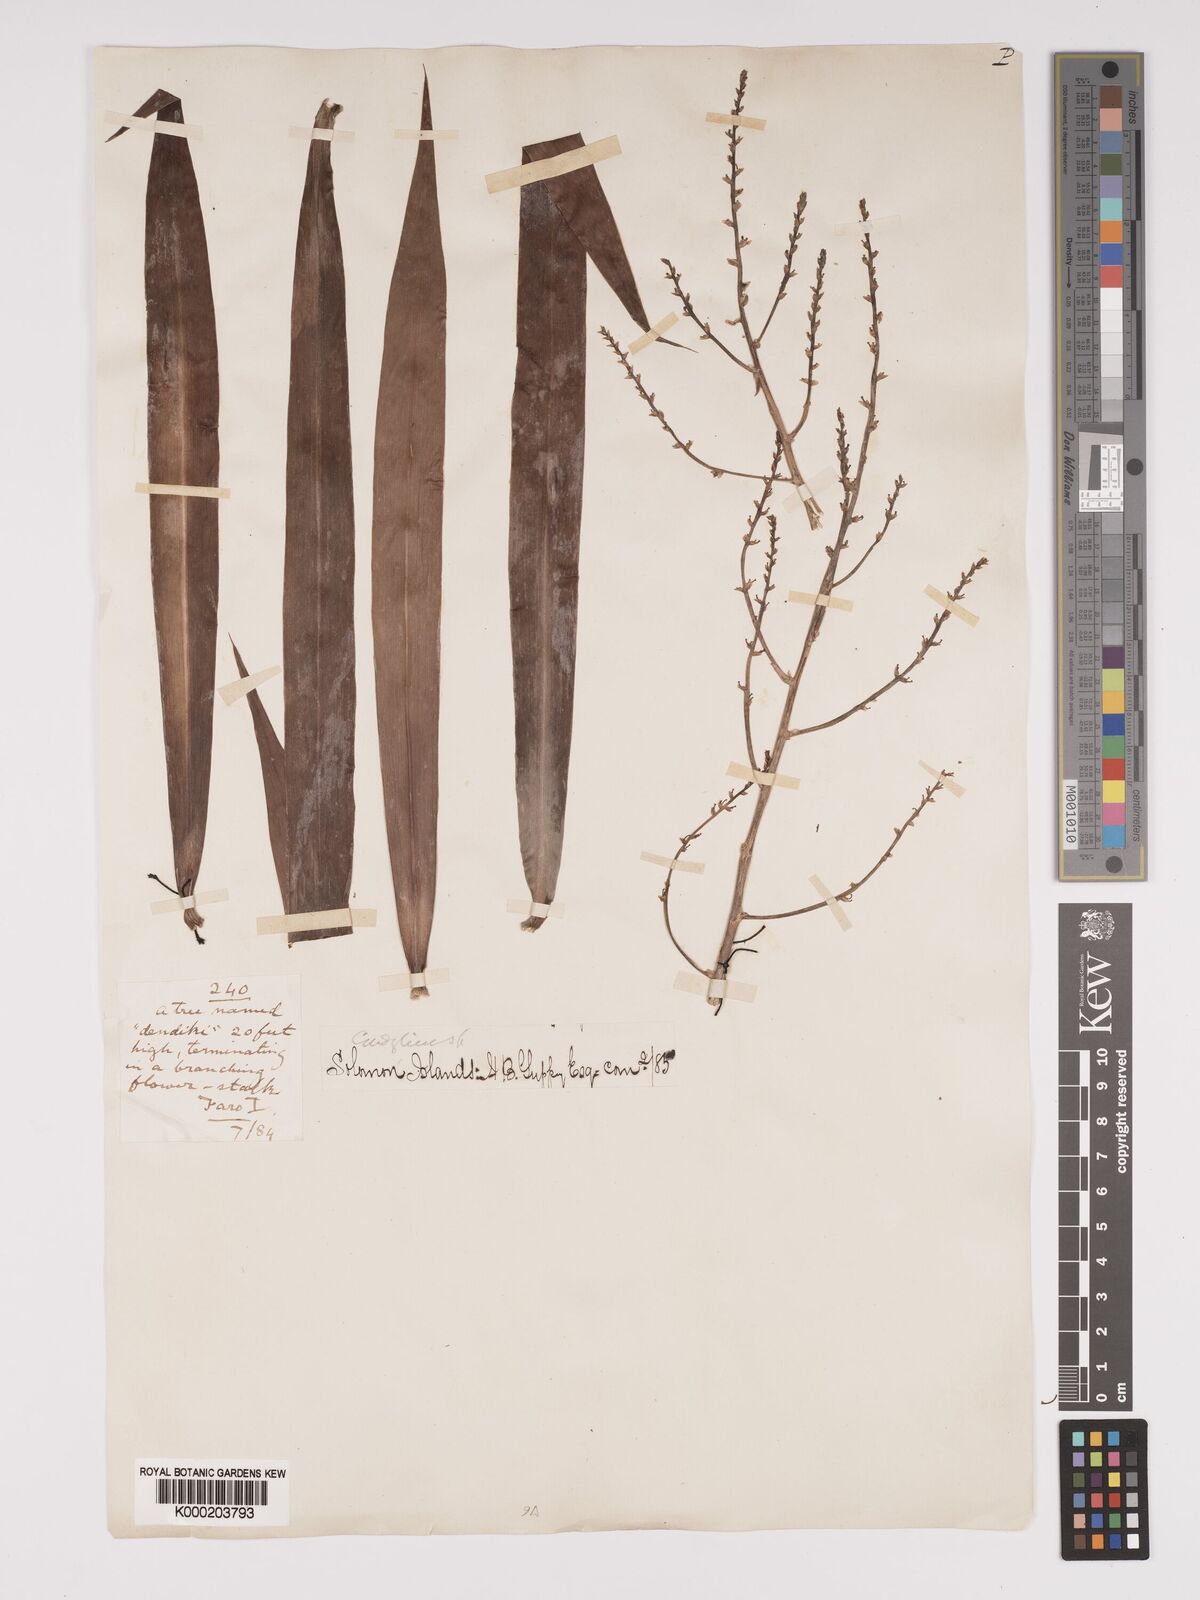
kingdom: Plantae
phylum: Tracheophyta
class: Liliopsida
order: Asparagales
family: Asparagaceae
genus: Dracaena
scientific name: Dracaena
